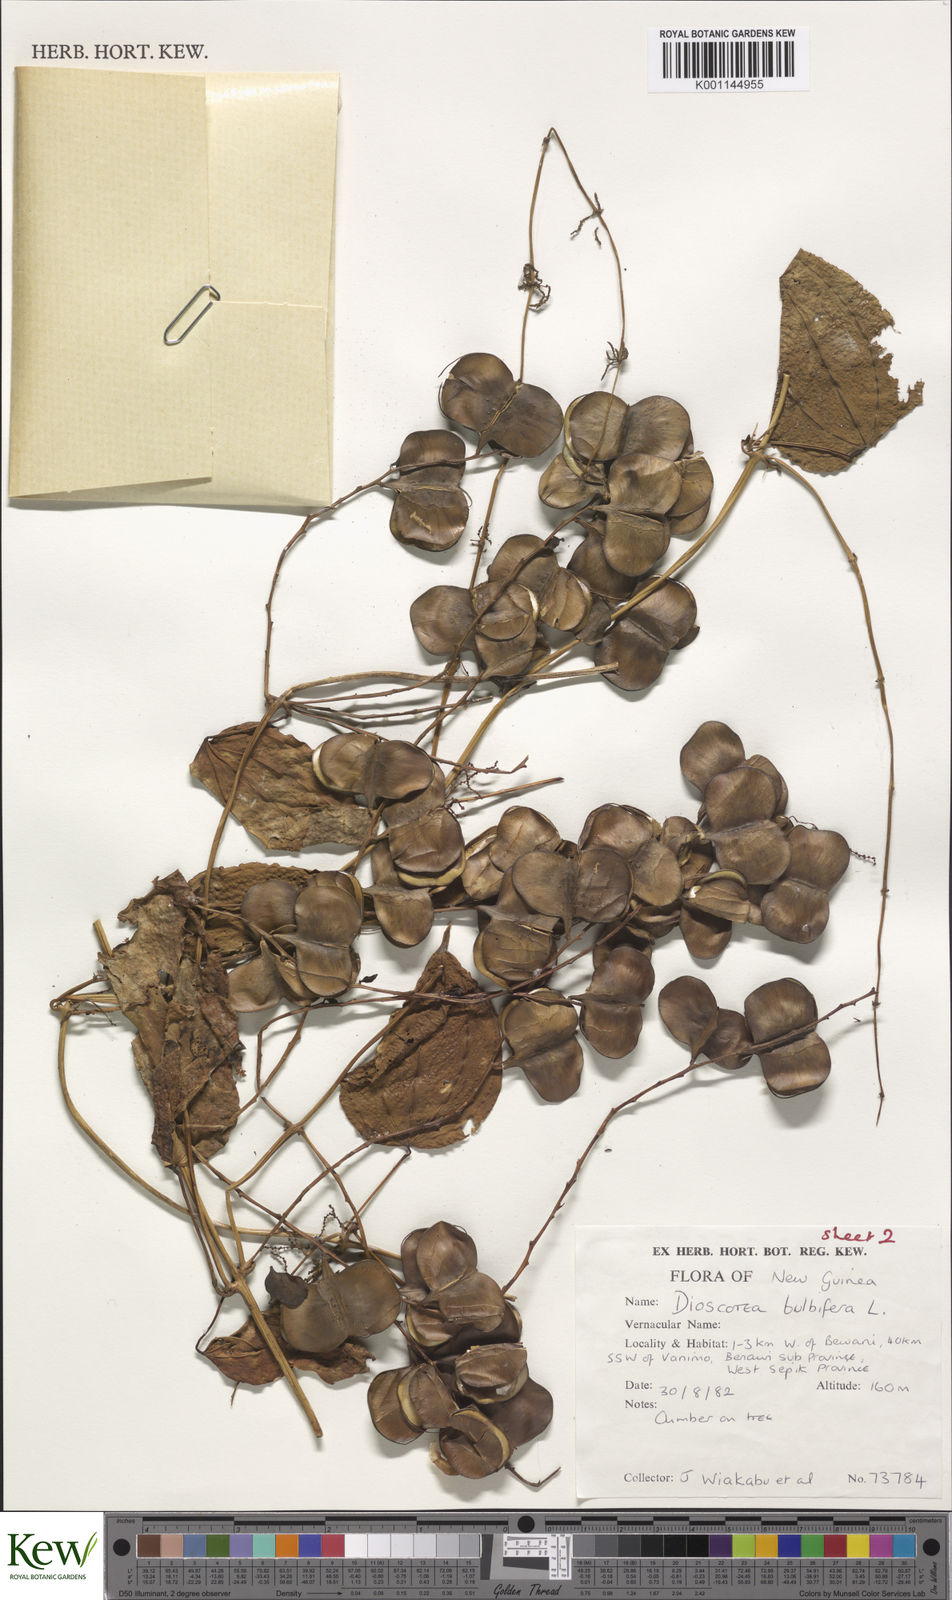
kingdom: Plantae
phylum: Tracheophyta
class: Liliopsida
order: Dioscoreales
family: Dioscoreaceae
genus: Dioscorea
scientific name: Dioscorea bulbifera
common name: Air yam
